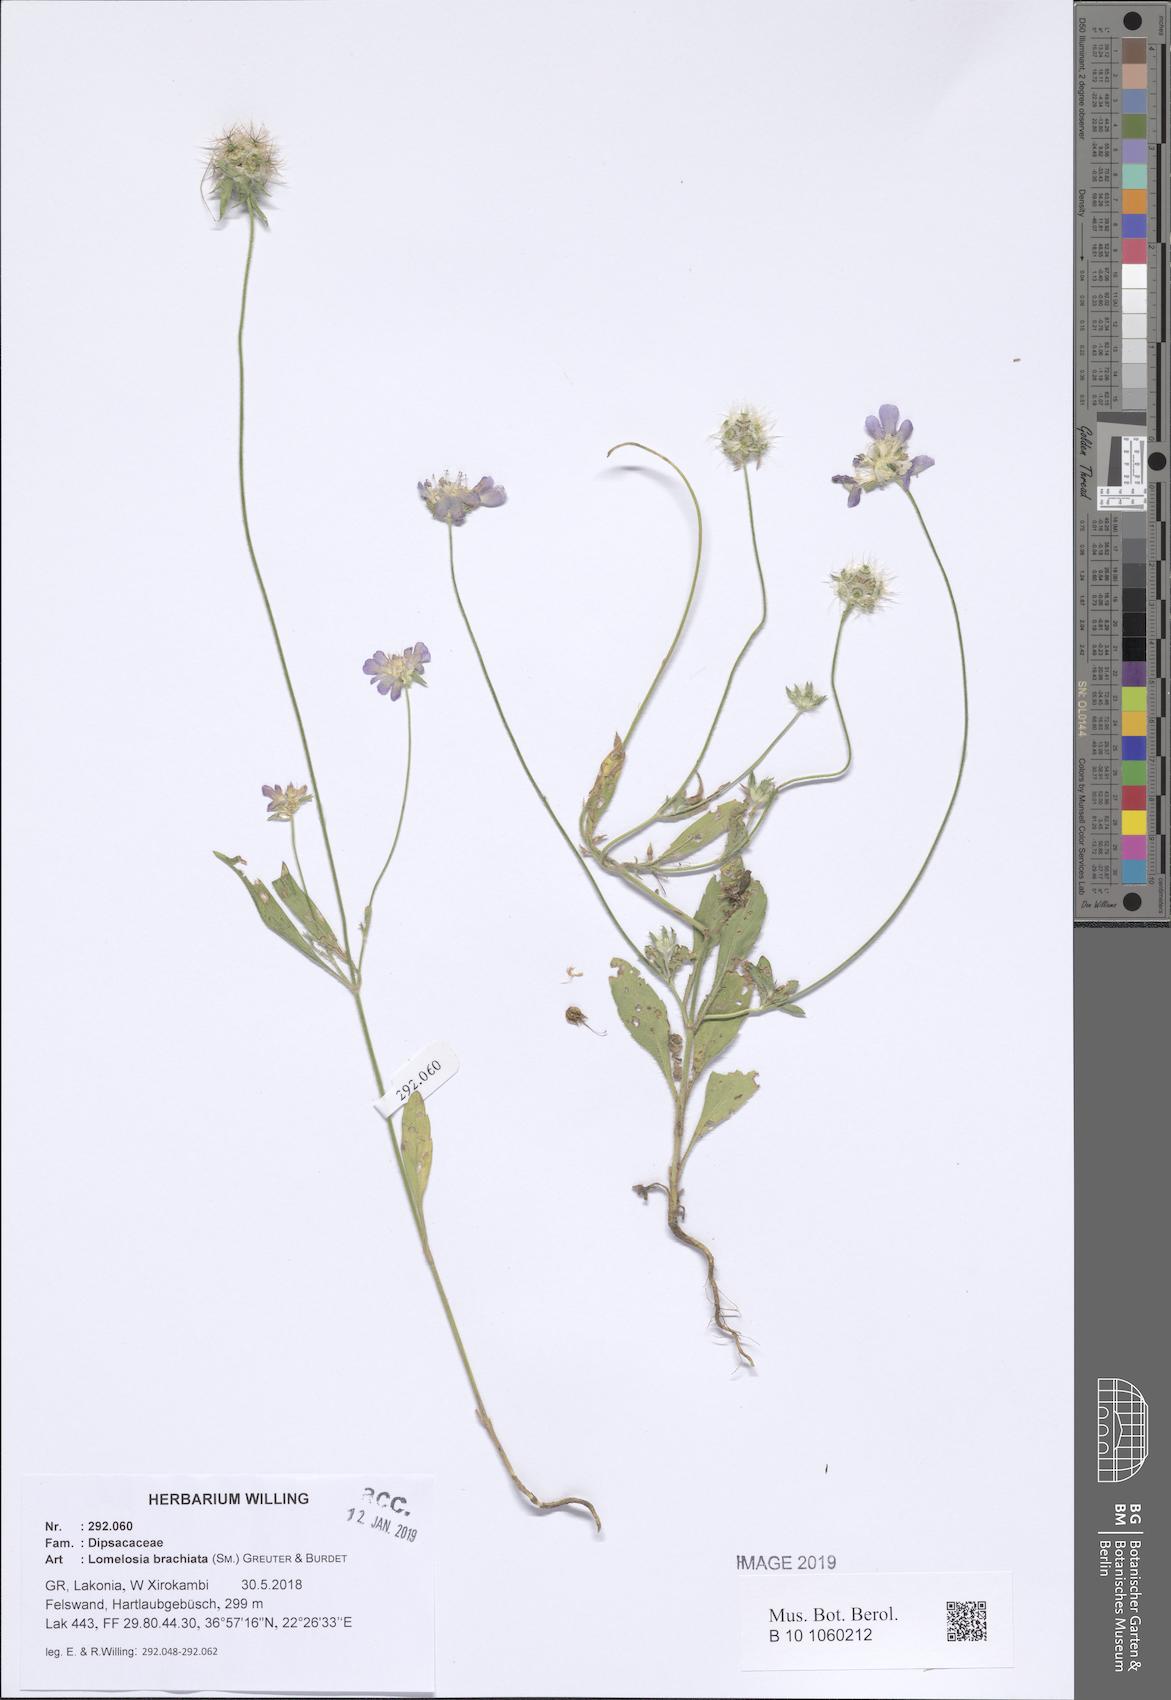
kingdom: Plantae
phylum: Tracheophyta
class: Magnoliopsida
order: Dipsacales
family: Caprifoliaceae
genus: Lomelosia
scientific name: Lomelosia brachiata
